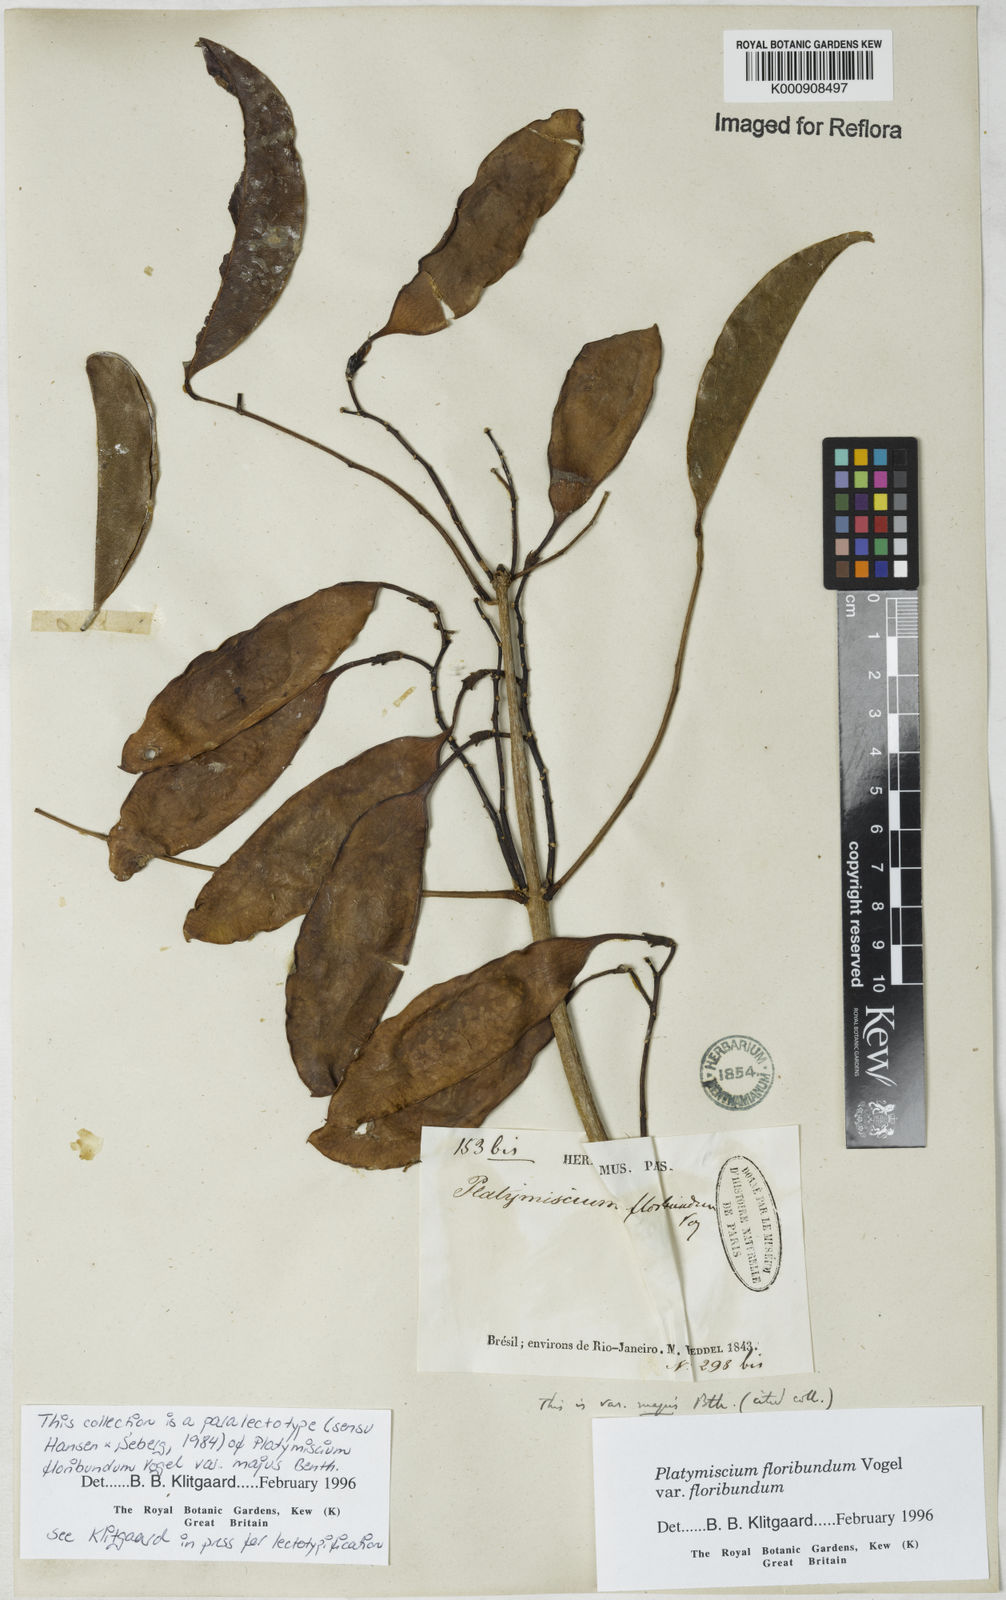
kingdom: Plantae
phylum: Tracheophyta
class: Magnoliopsida
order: Fabales
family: Fabaceae
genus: Platymiscium
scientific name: Platymiscium floribundum
